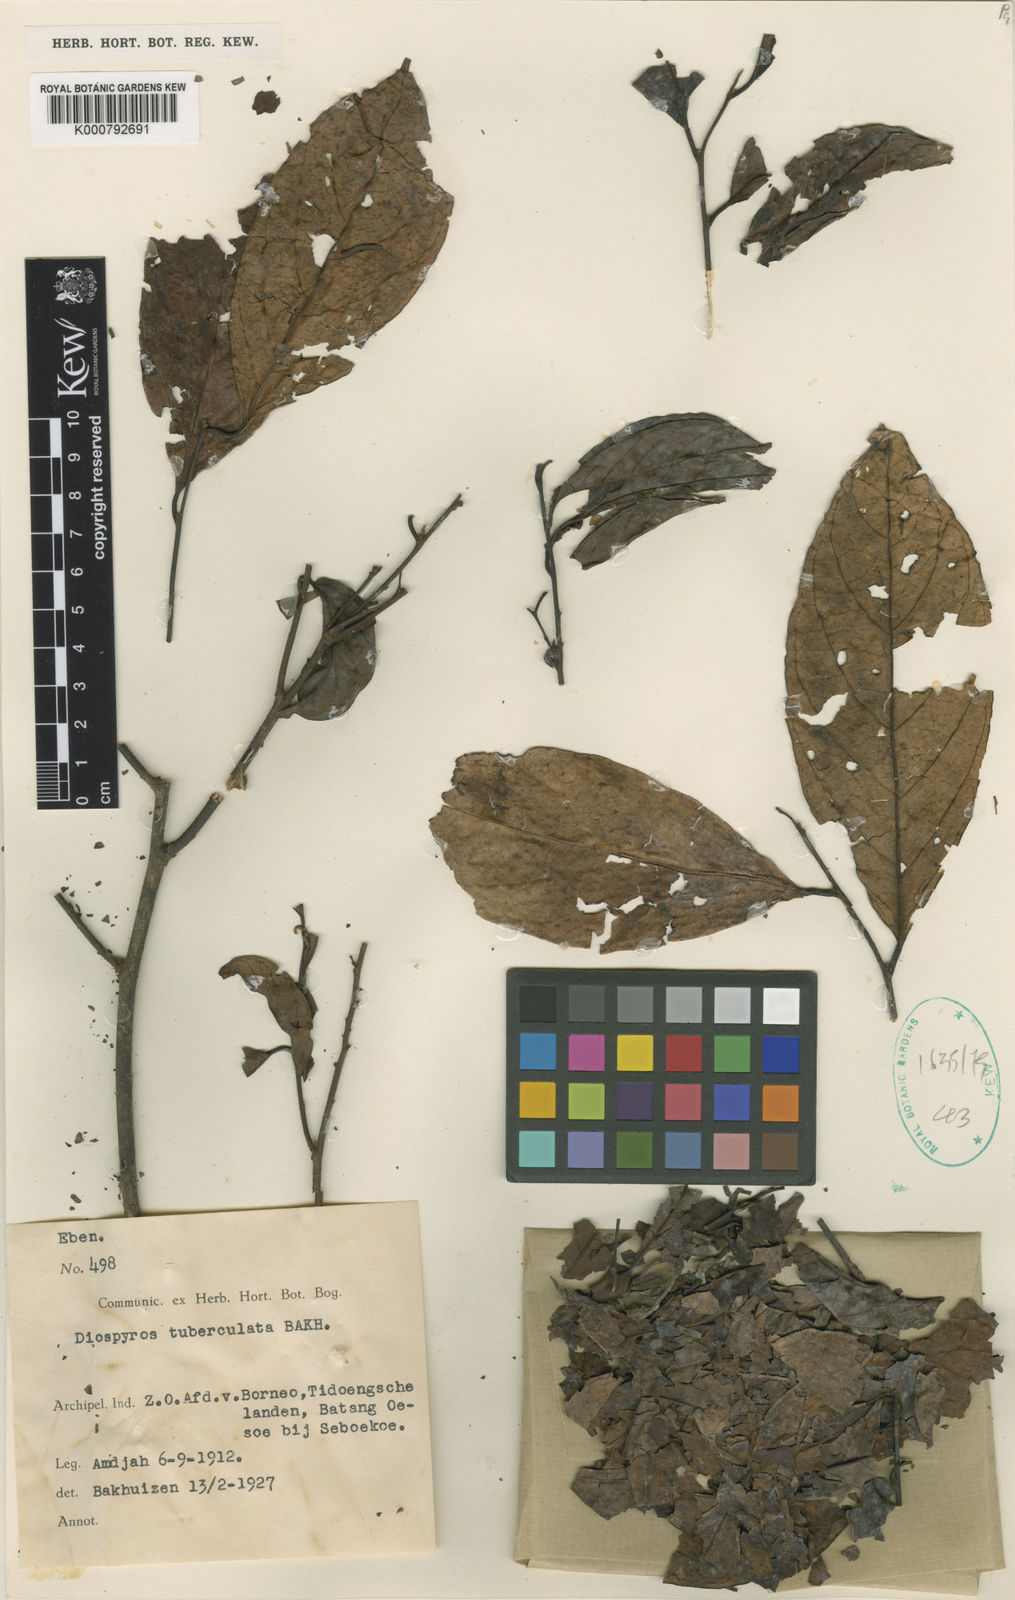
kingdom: Plantae
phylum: Tracheophyta
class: Magnoliopsida
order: Ericales
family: Ebenaceae
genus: Diospyros
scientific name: Diospyros tuberculata
